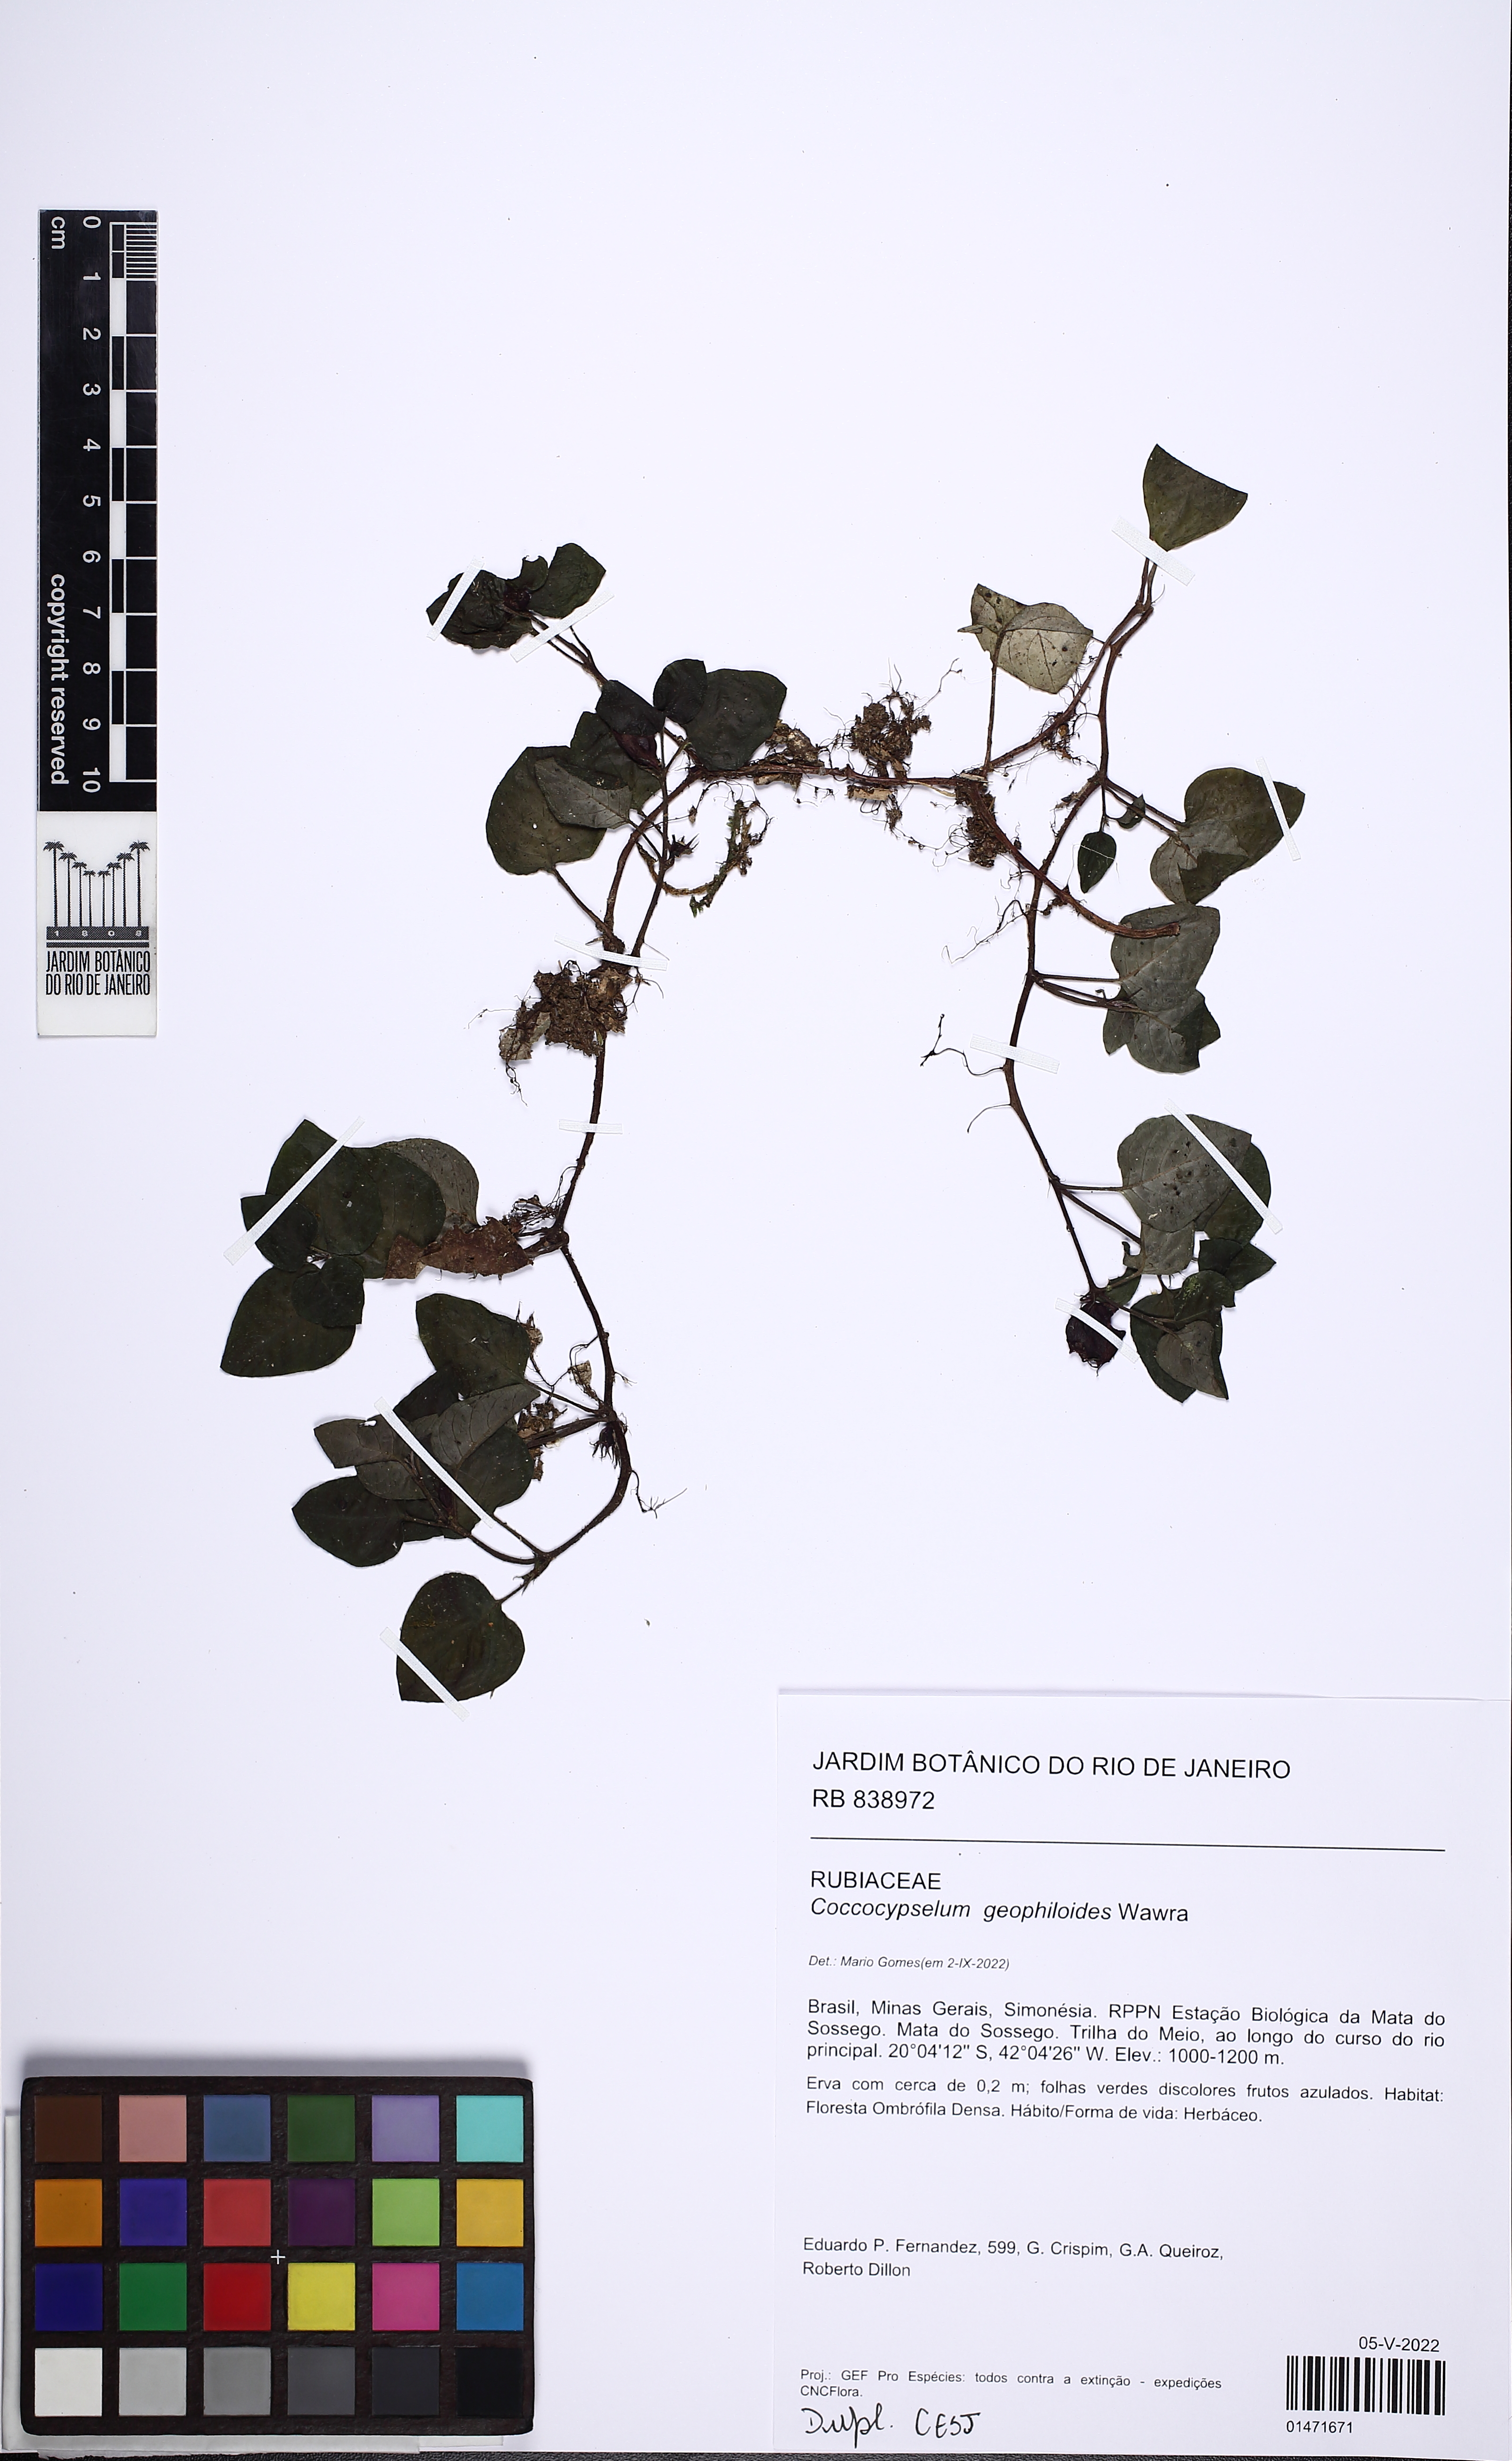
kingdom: Plantae
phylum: Tracheophyta
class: Magnoliopsida
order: Gentianales
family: Rubiaceae
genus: Coccocypselum
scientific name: Coccocypselum geophiloides
